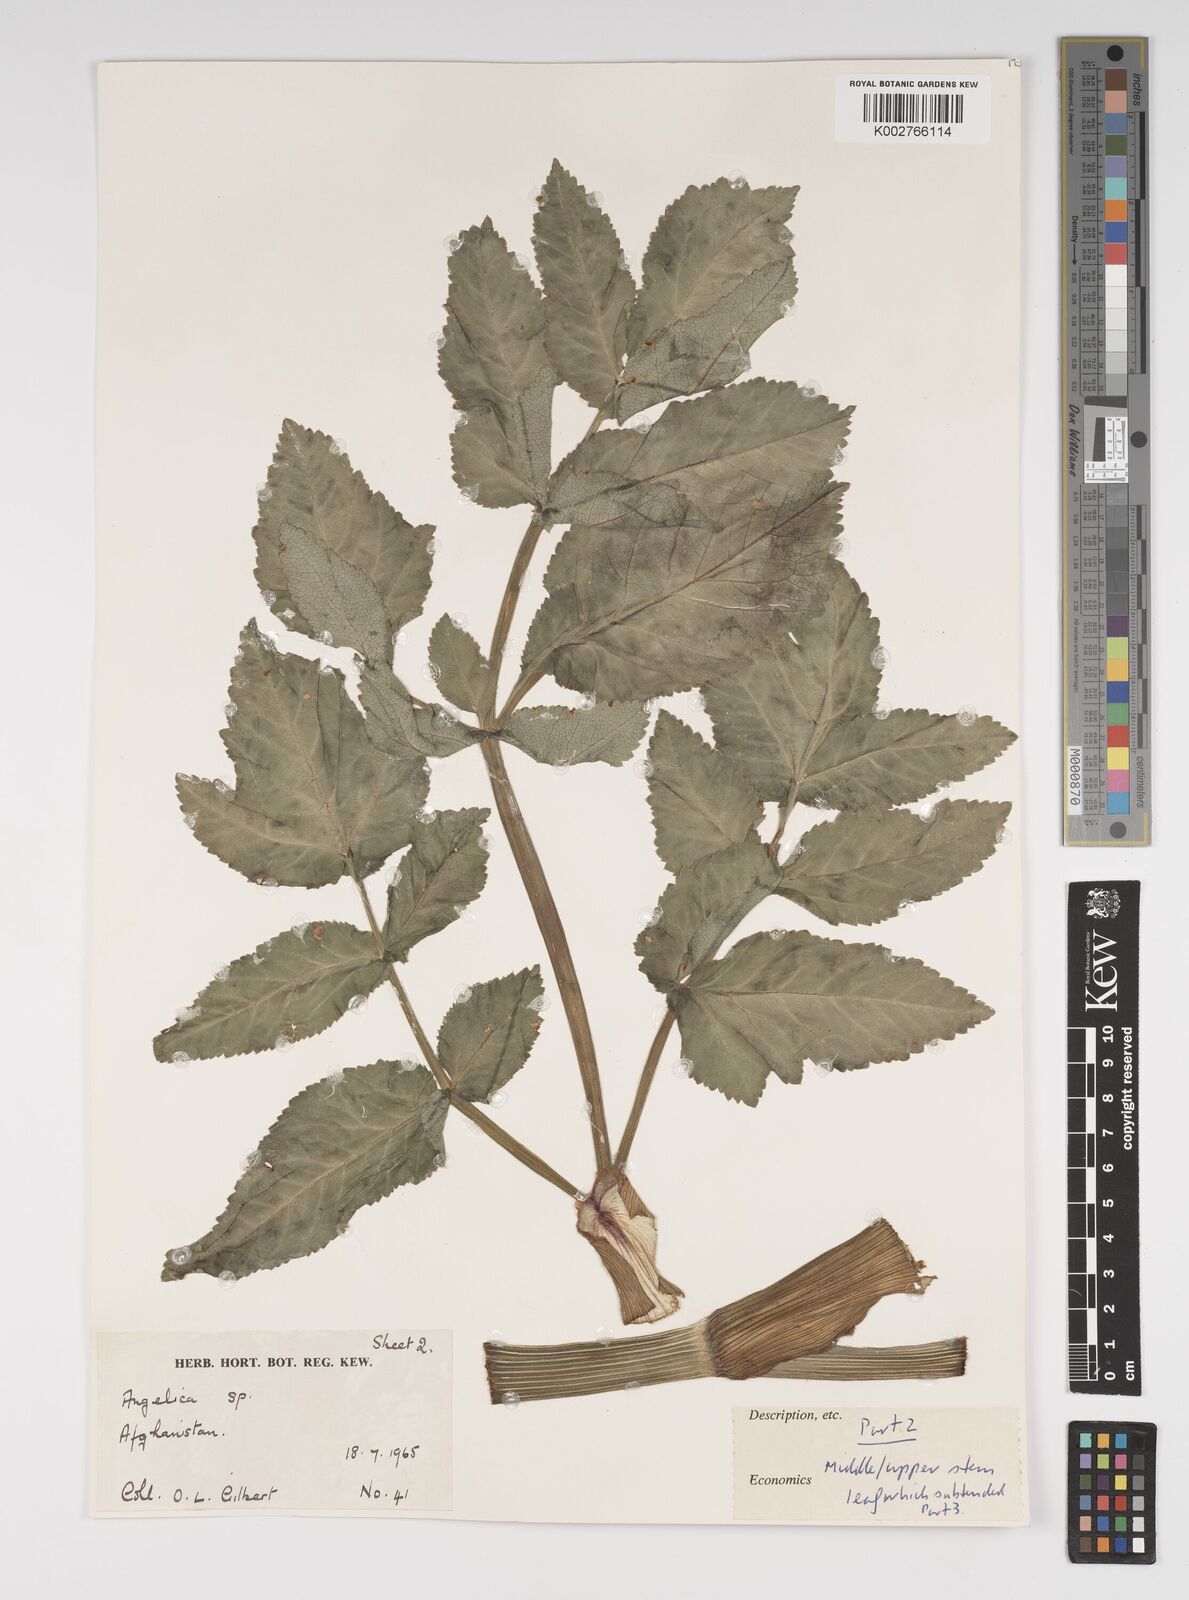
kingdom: Plantae
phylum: Tracheophyta
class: Magnoliopsida
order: Apiales
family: Apiaceae
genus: Angelica
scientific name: Angelica
